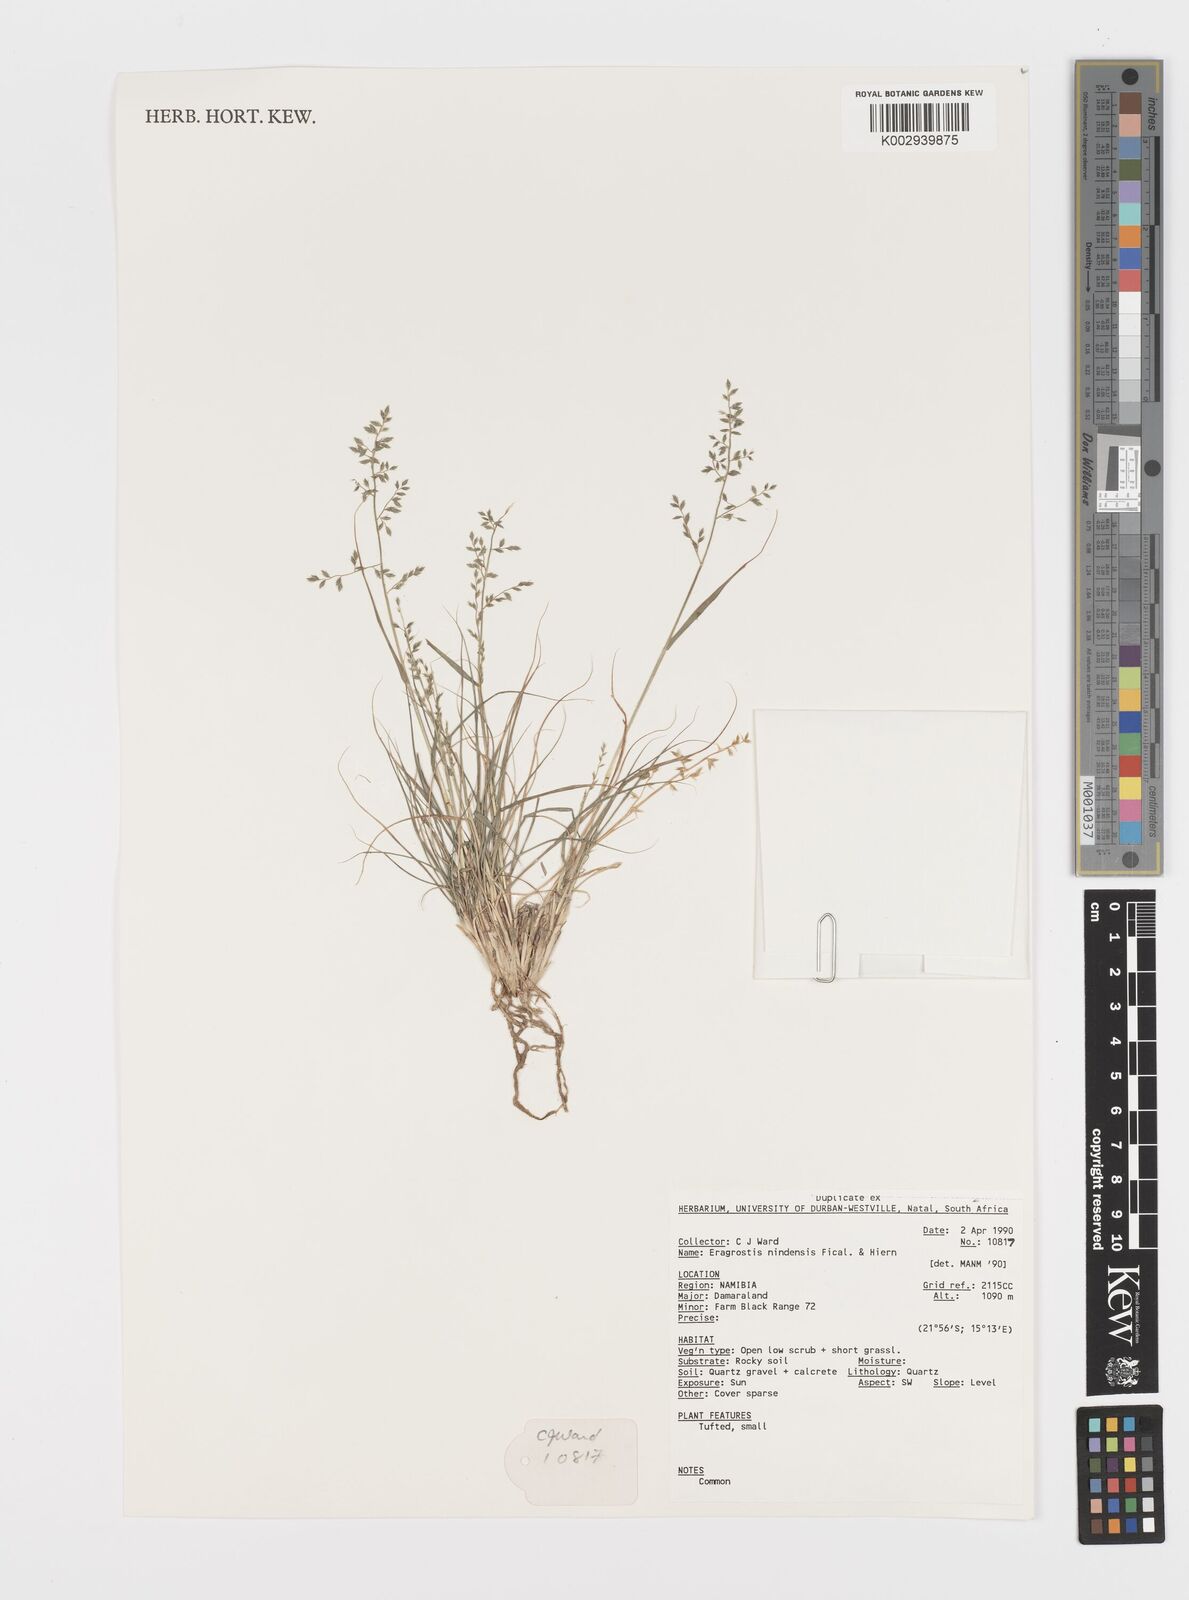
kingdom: Plantae
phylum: Tracheophyta
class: Liliopsida
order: Poales
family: Poaceae
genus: Eragrostis
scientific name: Eragrostis nindensis
